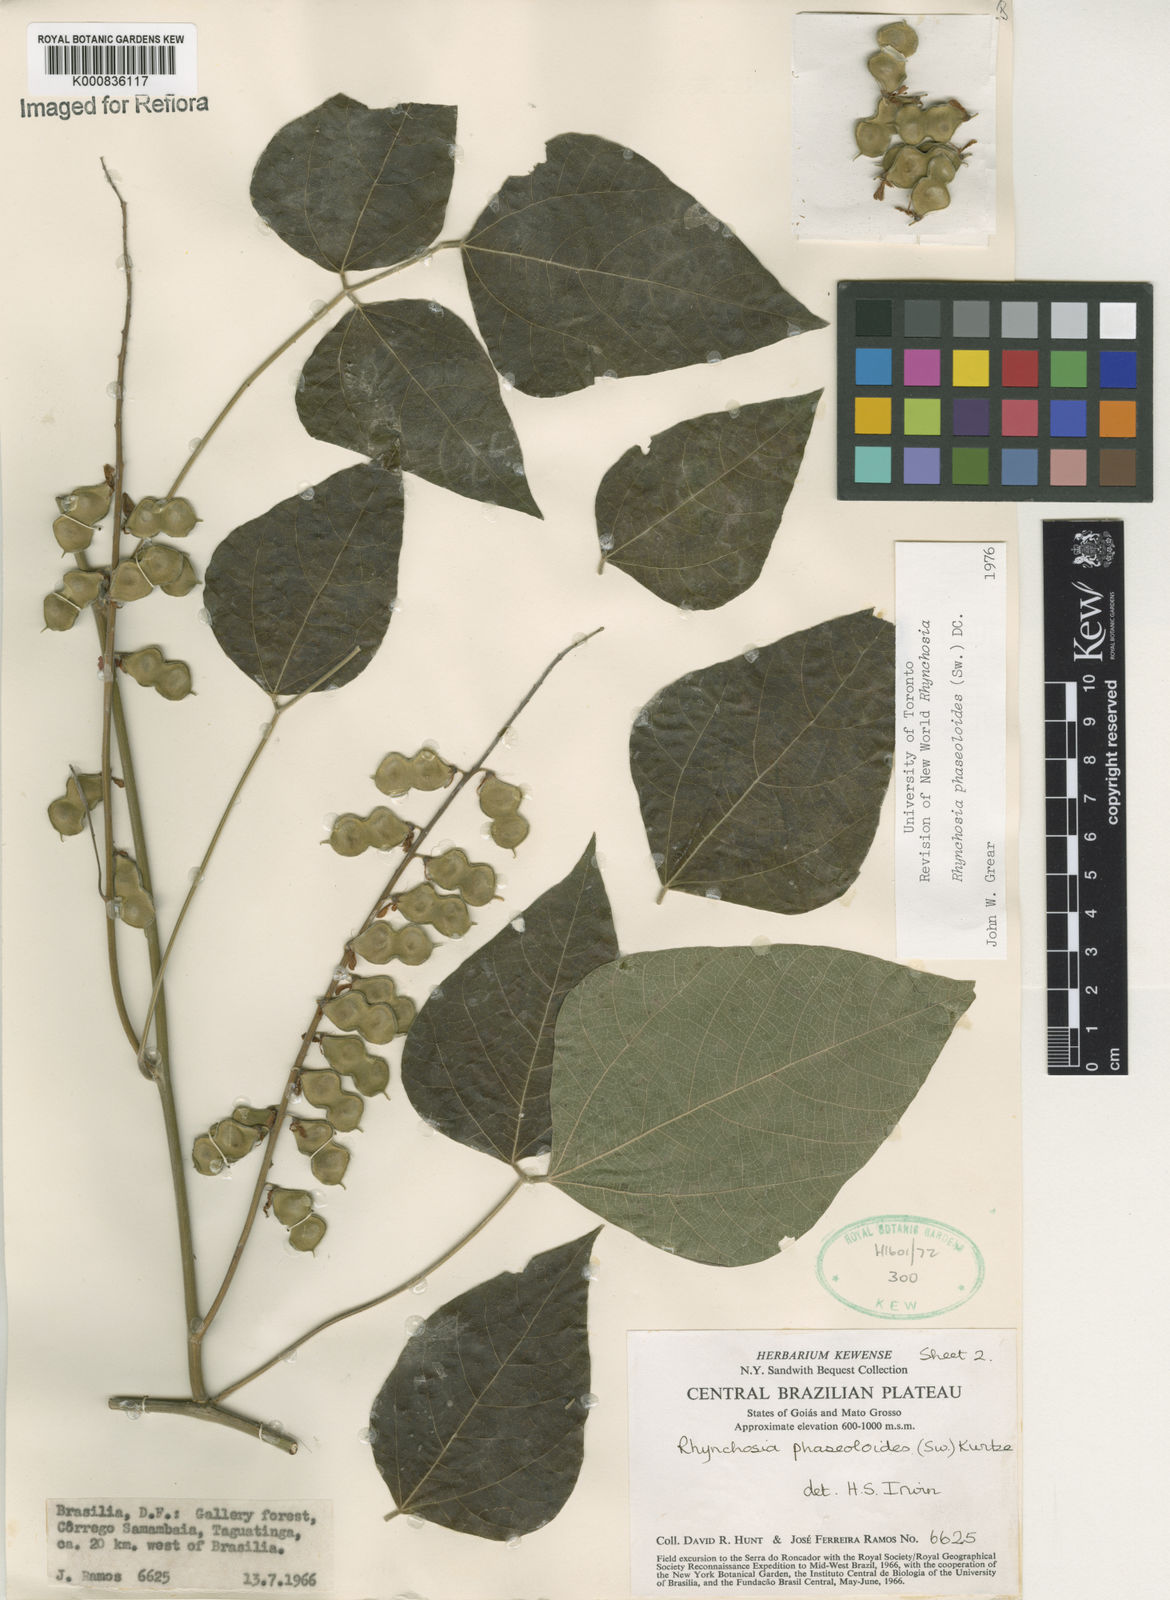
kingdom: Plantae
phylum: Tracheophyta
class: Magnoliopsida
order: Fabales
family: Fabaceae
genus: Rhynchosia
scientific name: Rhynchosia phaseoloides
